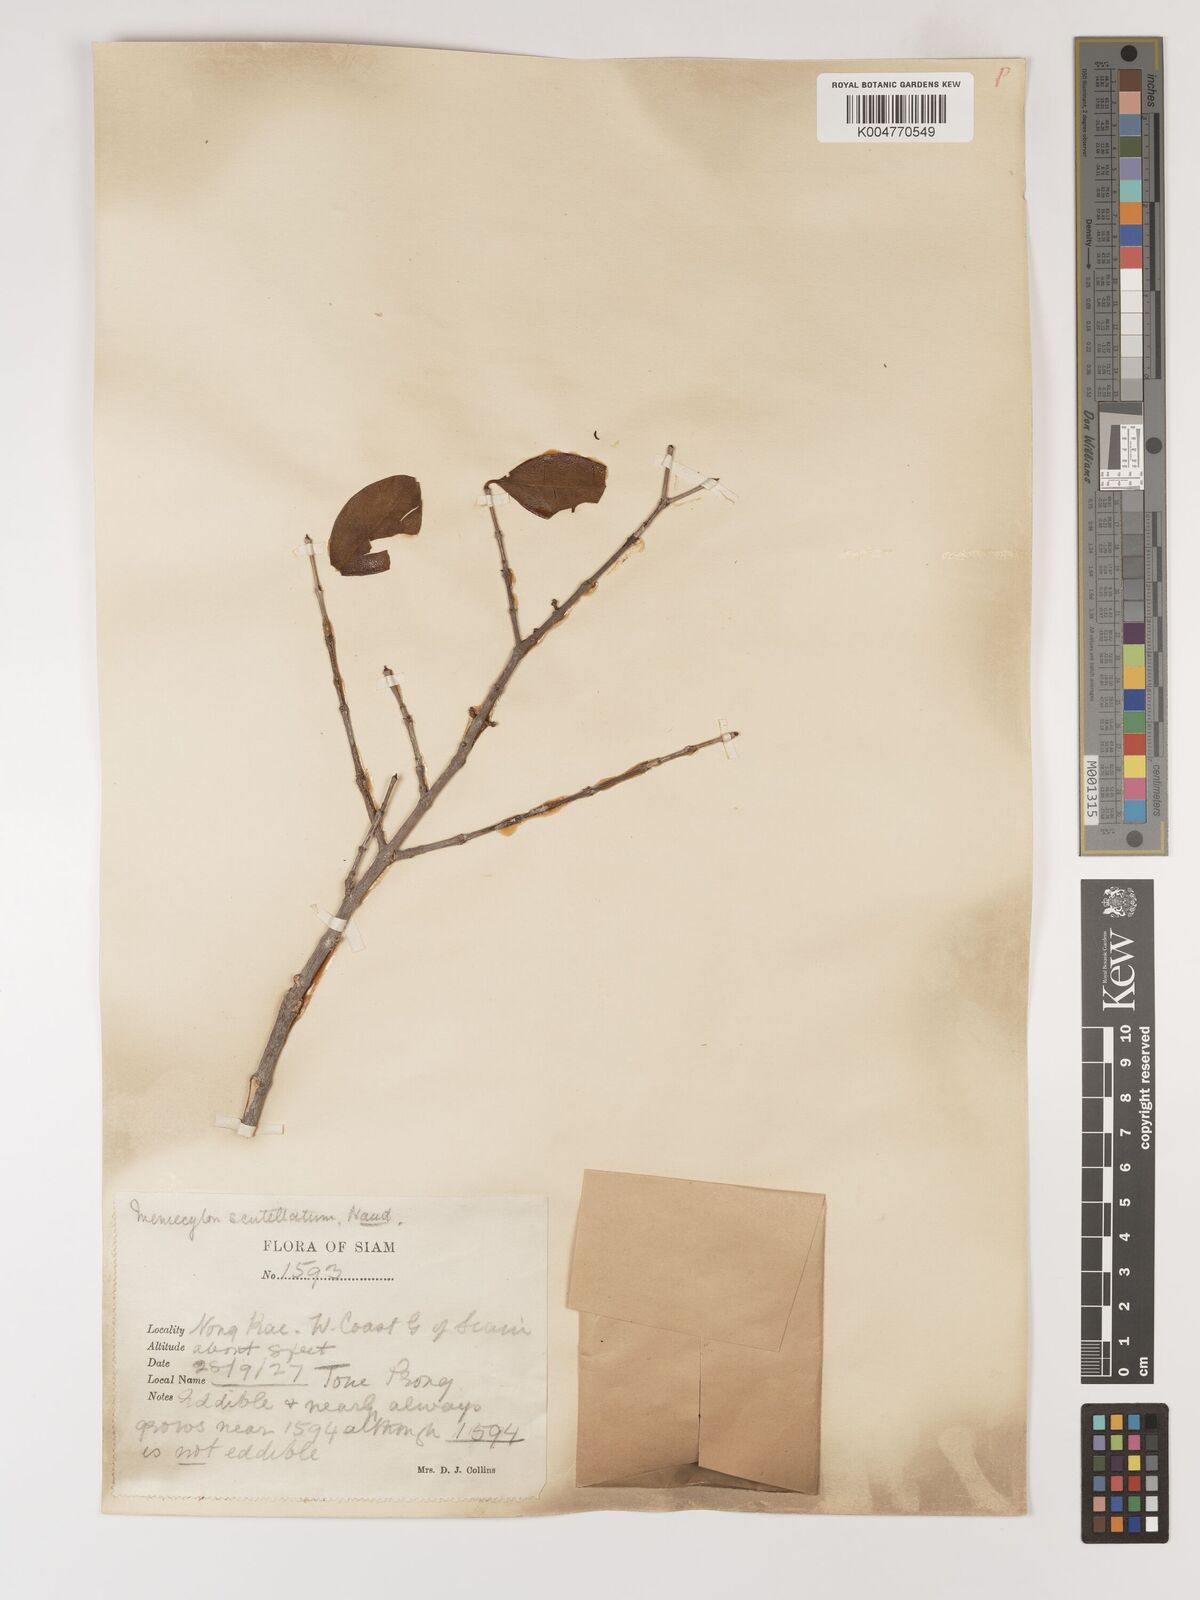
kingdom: Plantae
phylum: Tracheophyta
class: Magnoliopsida
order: Myrtales
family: Melastomataceae
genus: Memecylon
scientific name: Memecylon scutellatum
